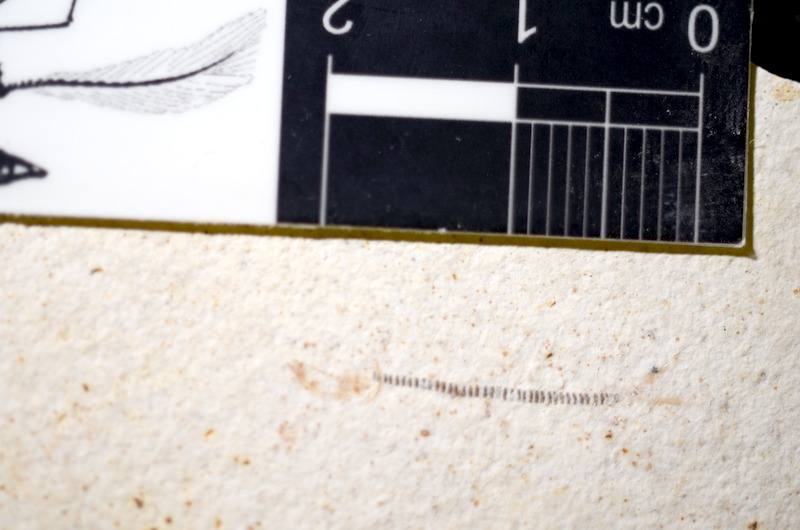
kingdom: Animalia
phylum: Chordata
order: Salmoniformes
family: Orthogonikleithridae
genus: Orthogonikleithrus
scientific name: Orthogonikleithrus hoelli
